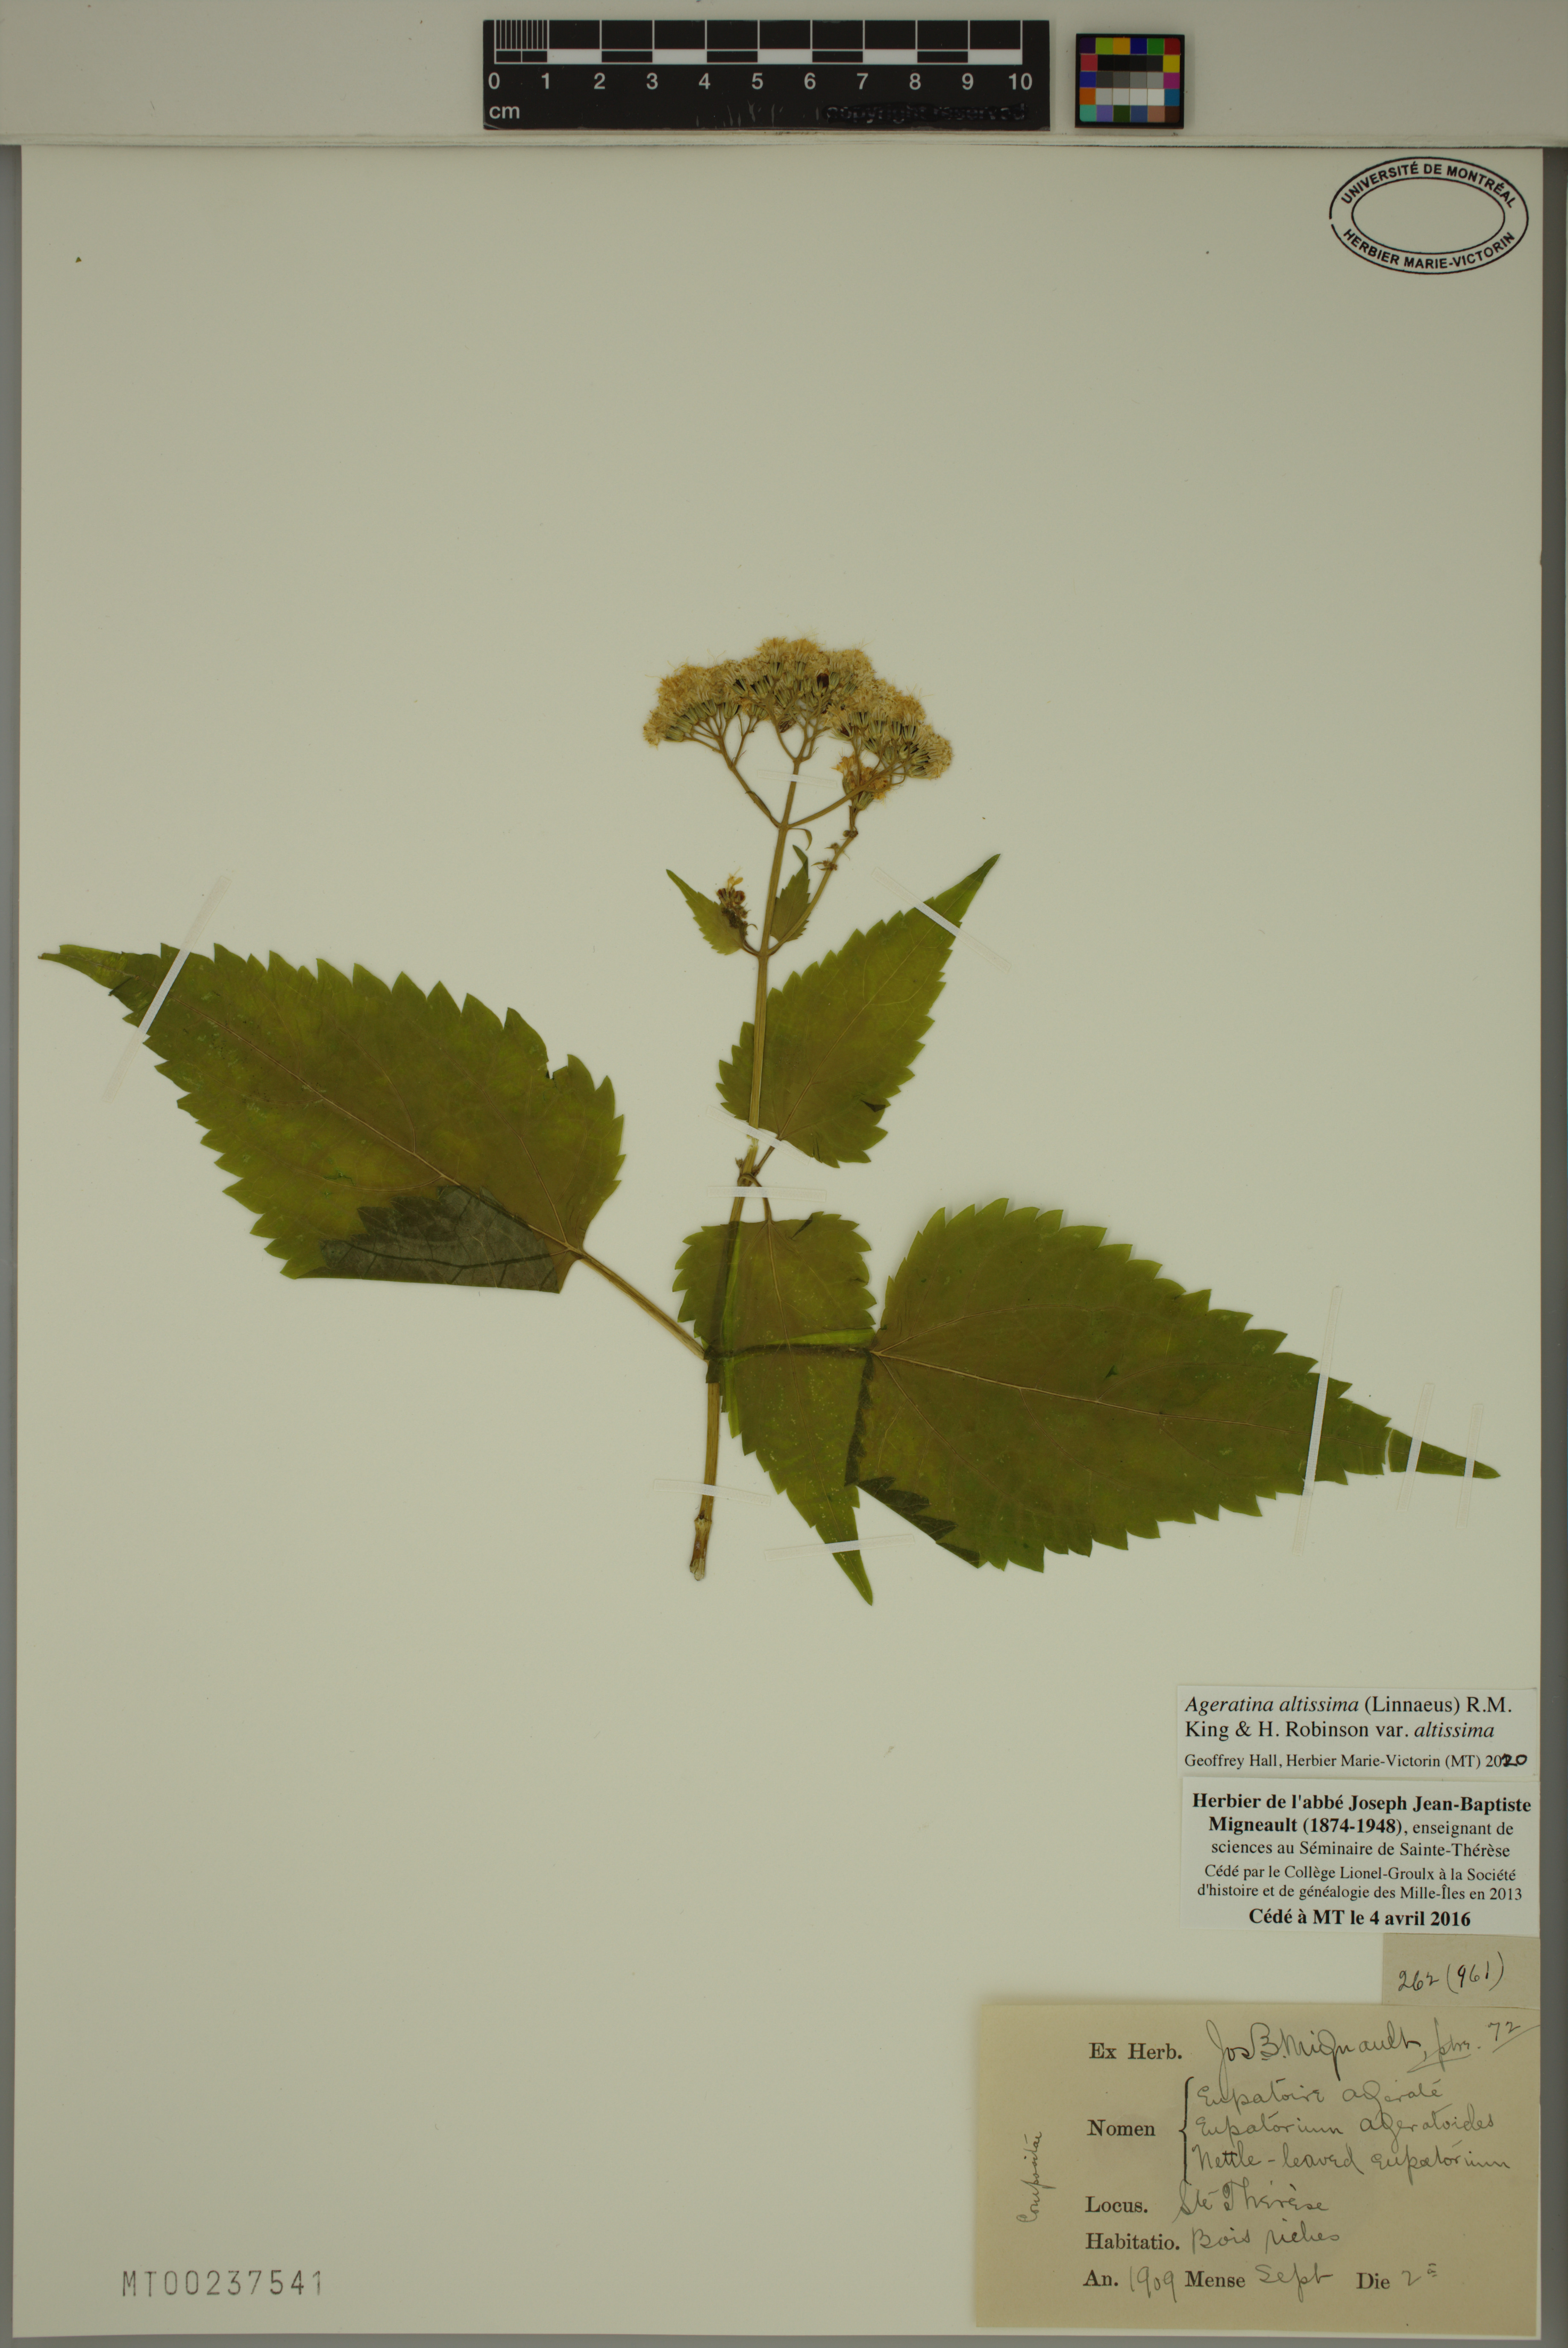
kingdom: Plantae
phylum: Tracheophyta
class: Magnoliopsida
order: Asterales
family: Asteraceae
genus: Ageratina
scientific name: Ageratina altissima
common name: White snakeroot
